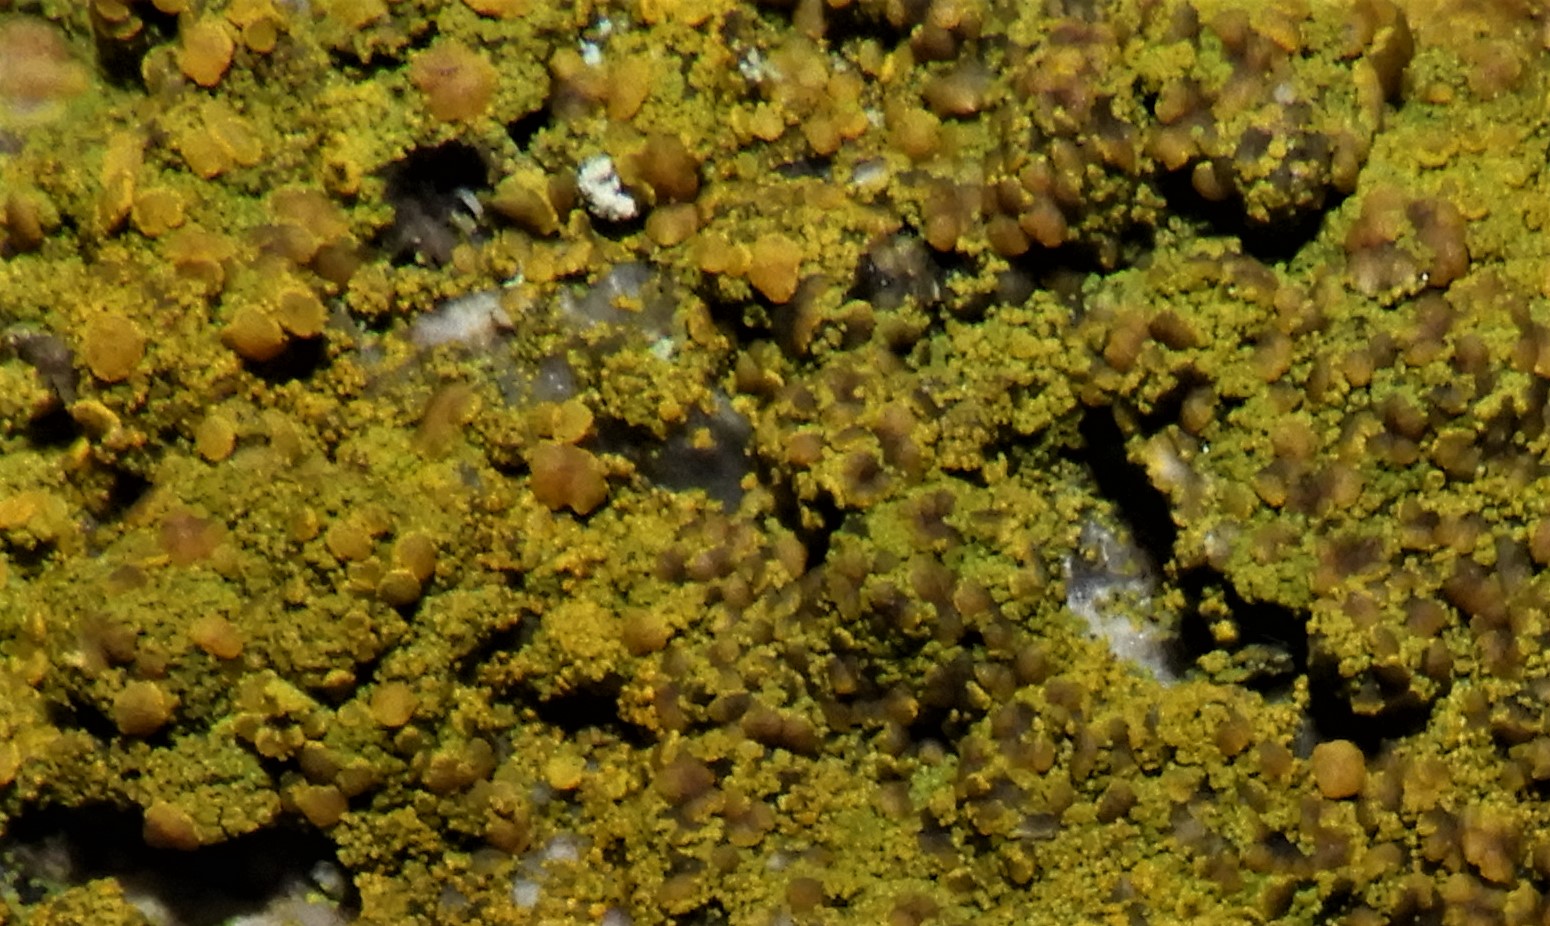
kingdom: Fungi
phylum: Ascomycota
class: Candelariomycetes
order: Candelariales
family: Candelariaceae
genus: Candelariella
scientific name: Candelariella vitellina
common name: almindelig æggeblommelav
